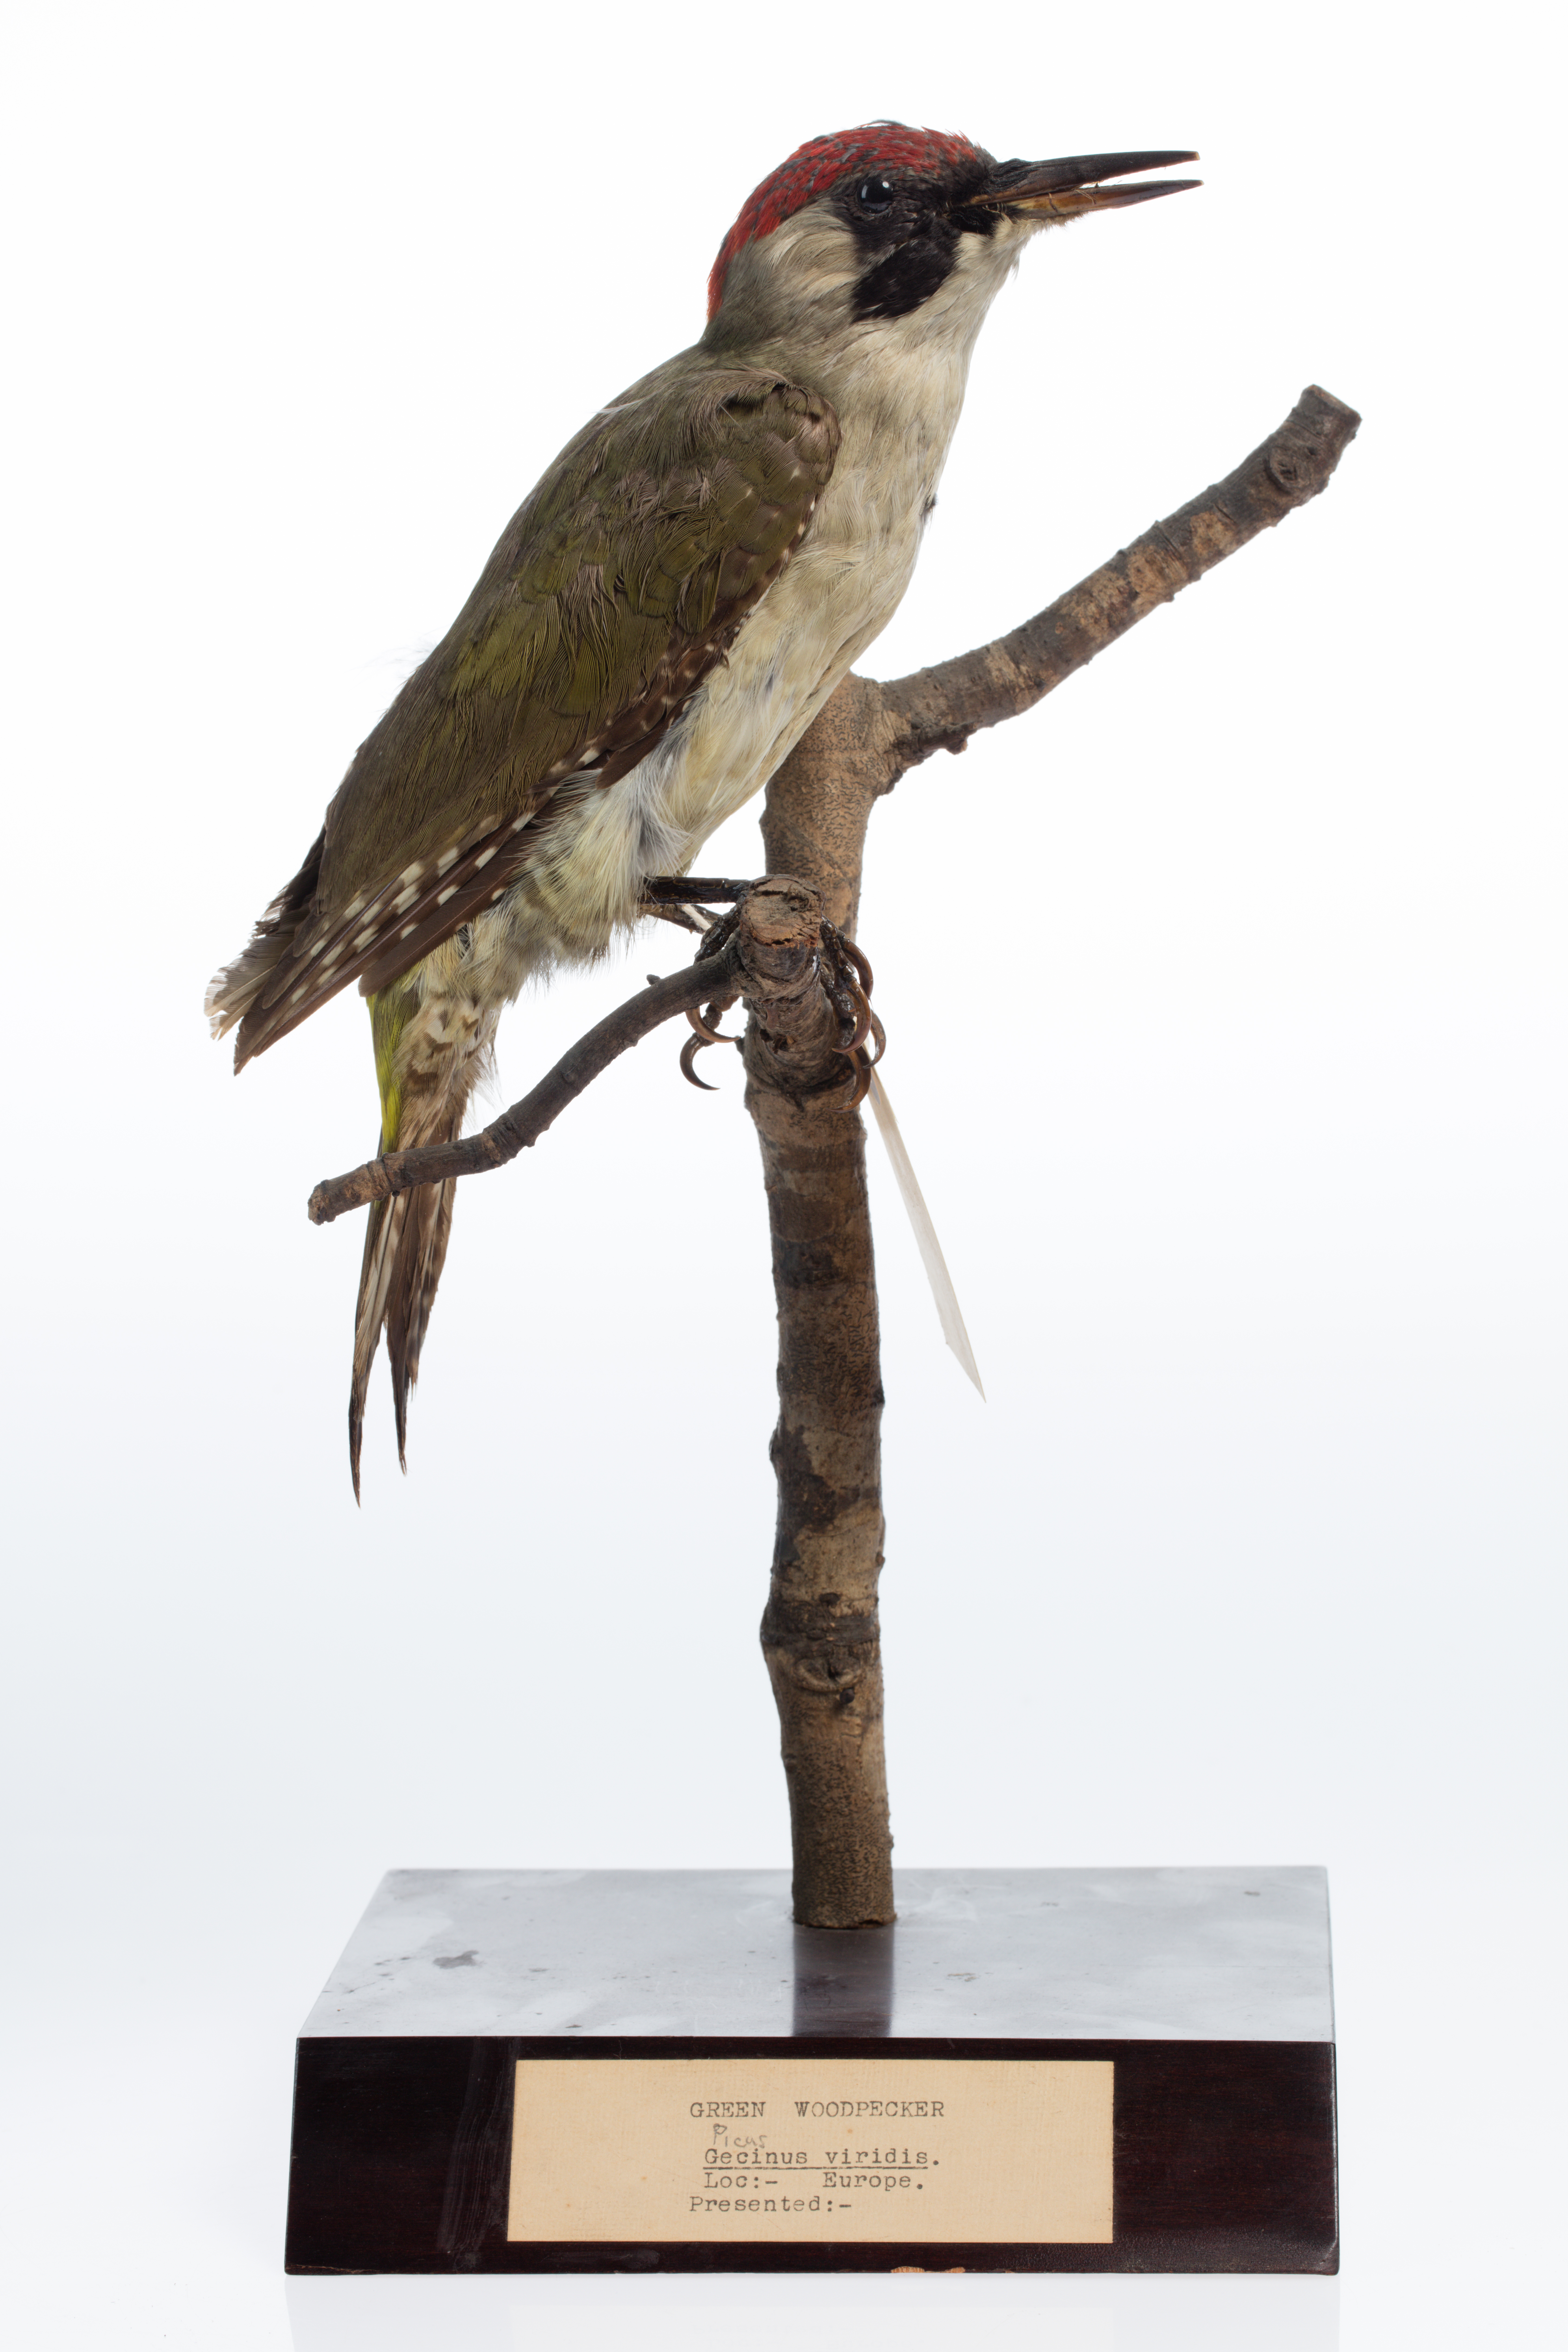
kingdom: Animalia
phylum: Chordata
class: Aves
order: Piciformes
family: Picidae
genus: Picus
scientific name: Picus viridis
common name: European green woodpecker
